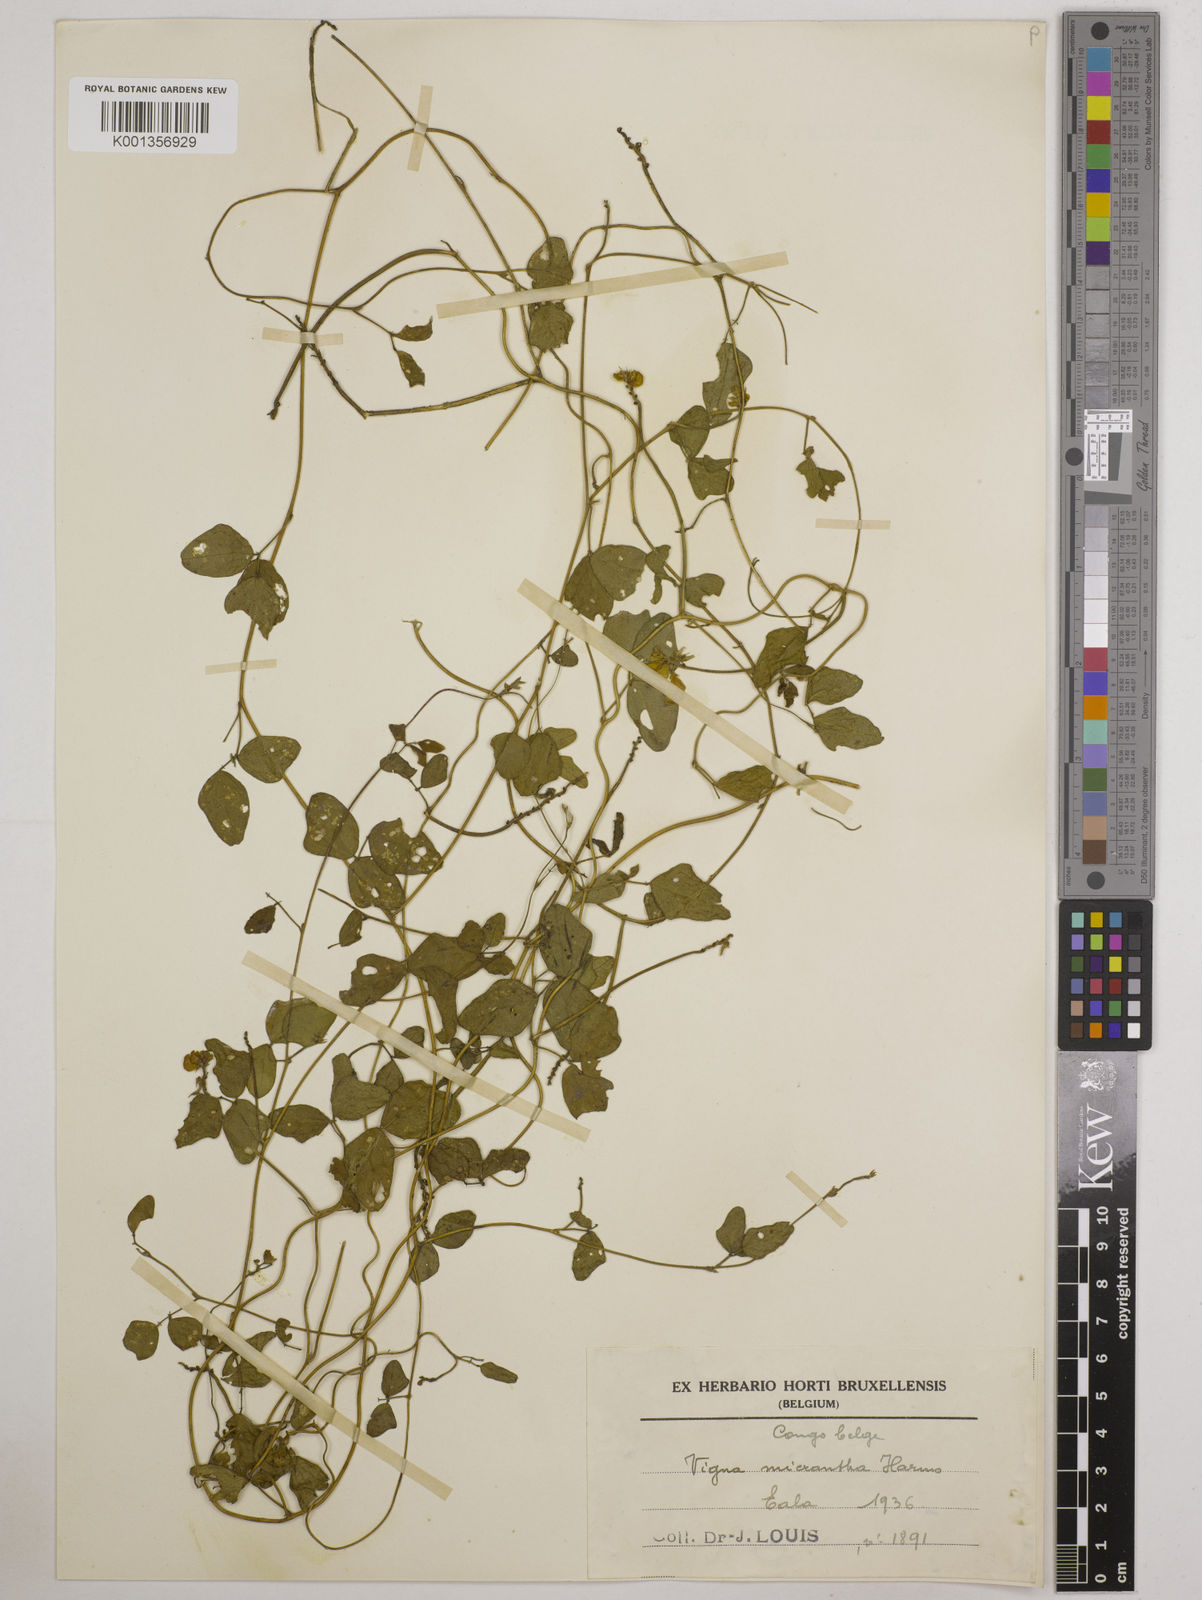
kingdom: Plantae
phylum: Tracheophyta
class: Magnoliopsida
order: Fabales
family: Fabaceae
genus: Vigna
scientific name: Vigna comosa
